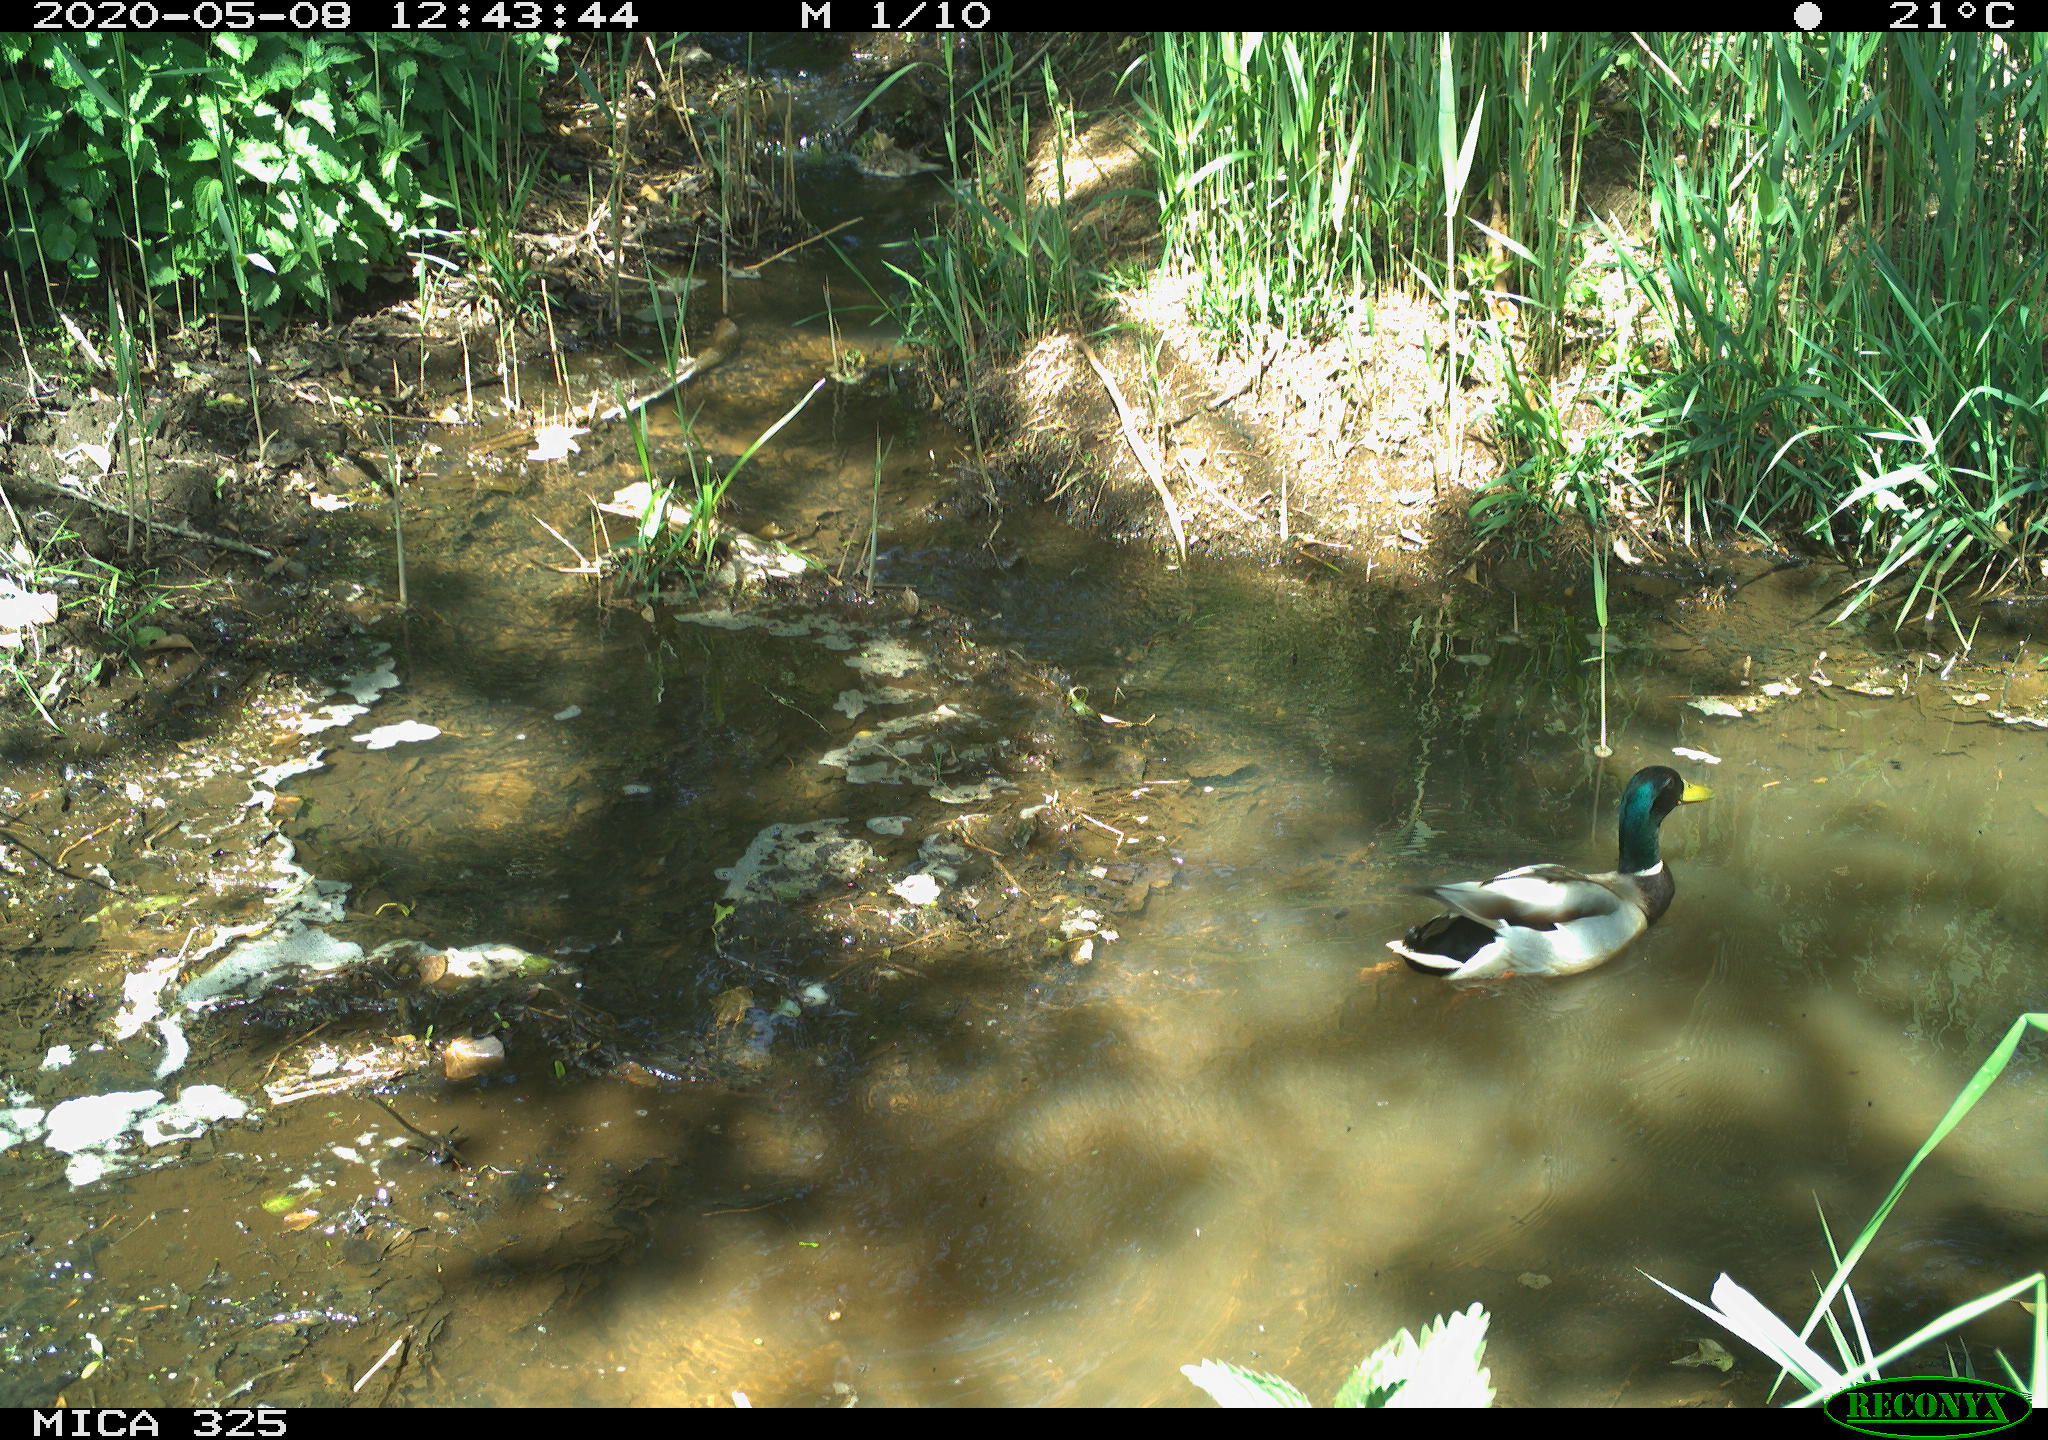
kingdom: Animalia
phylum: Chordata
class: Aves
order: Anseriformes
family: Anatidae
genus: Anas
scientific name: Anas platyrhynchos
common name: Mallard
